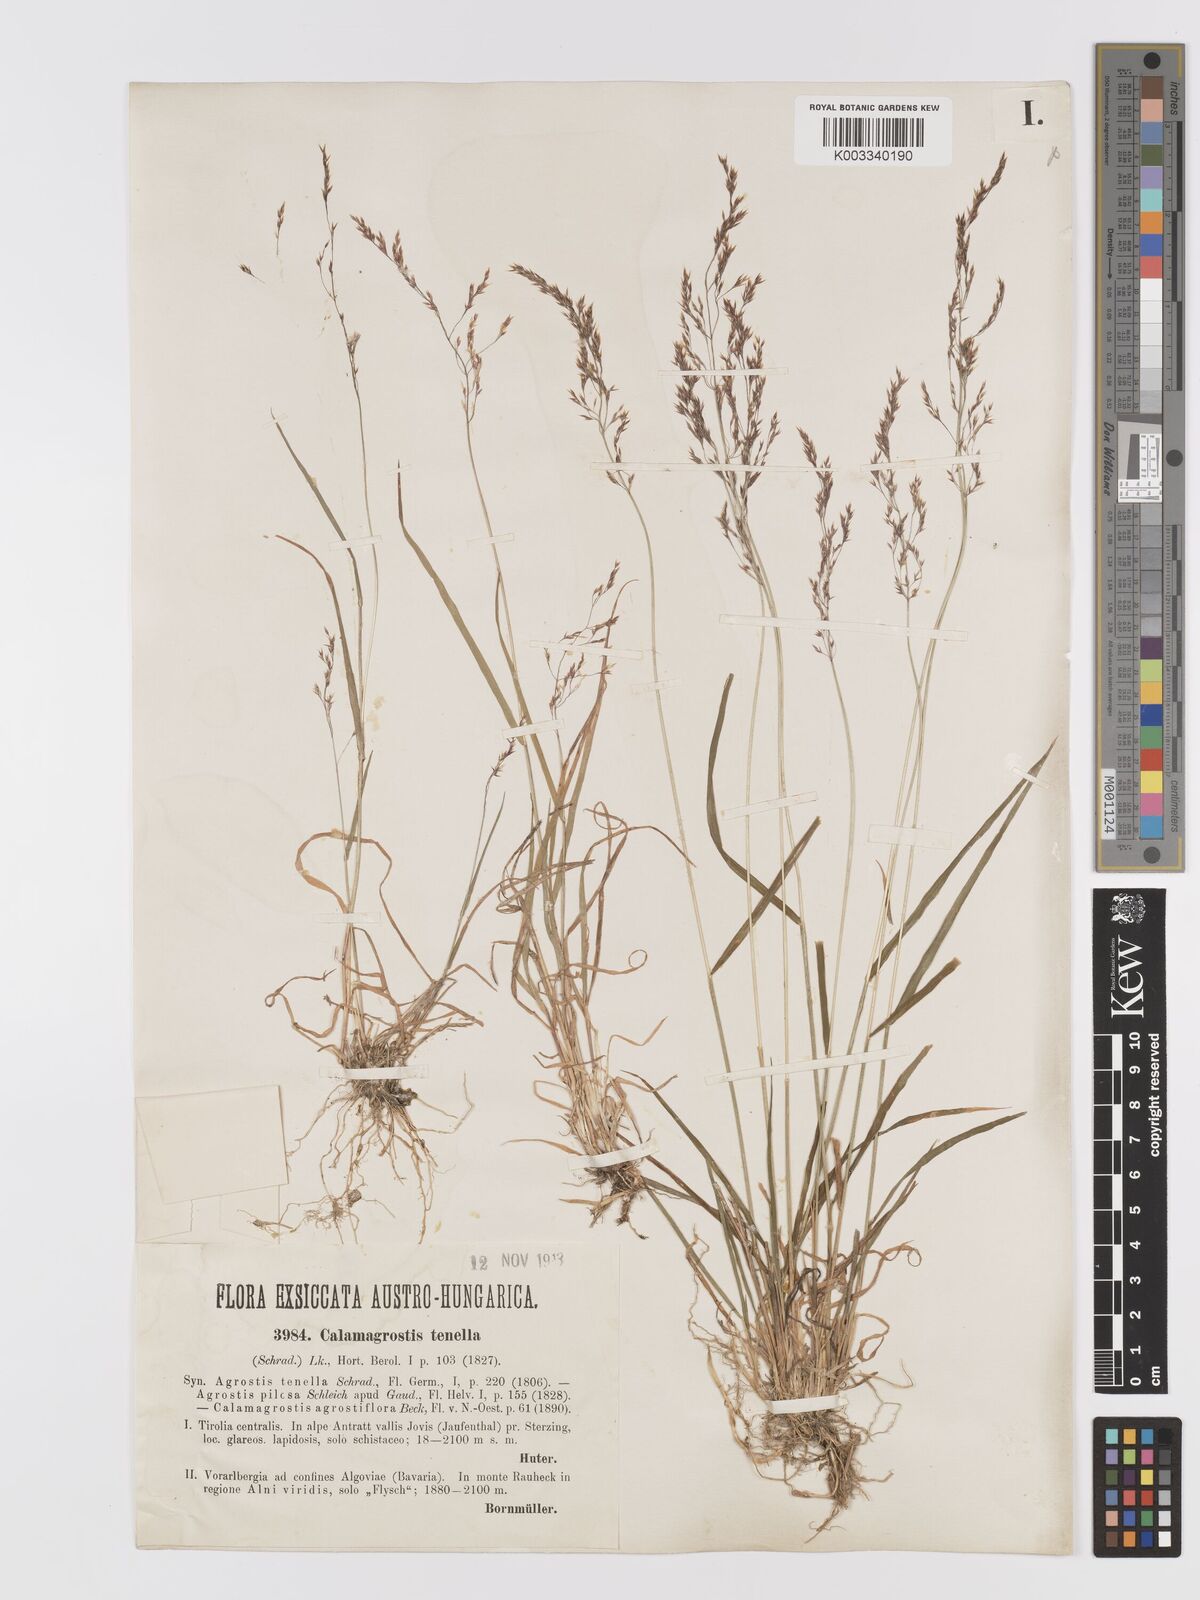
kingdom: Plantae
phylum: Tracheophyta
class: Liliopsida
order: Poales
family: Poaceae
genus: Agrostis
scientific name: Agrostis schraderiana
